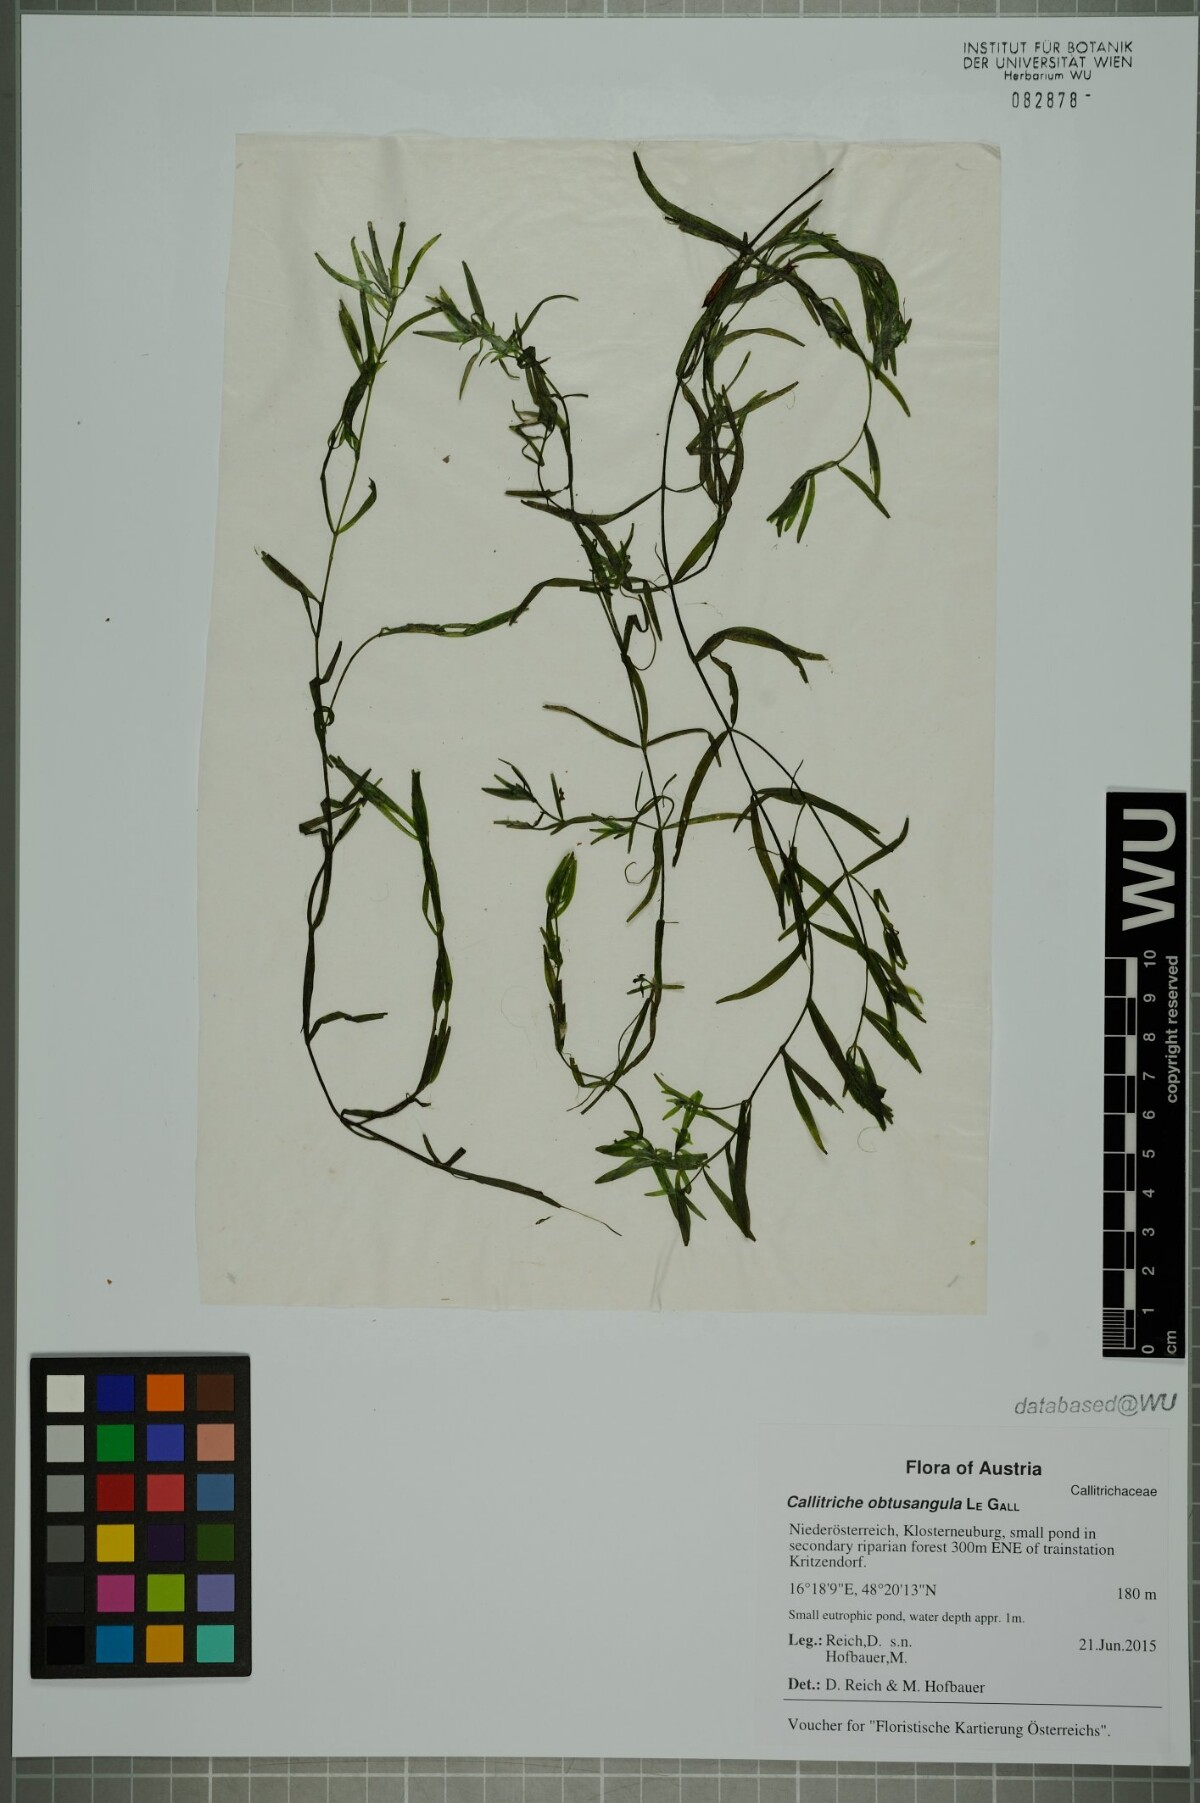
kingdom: Plantae
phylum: Tracheophyta
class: Magnoliopsida
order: Lamiales
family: Plantaginaceae
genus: Callitriche
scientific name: Callitriche obtusangula
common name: Blunt-fruited water-starwort
